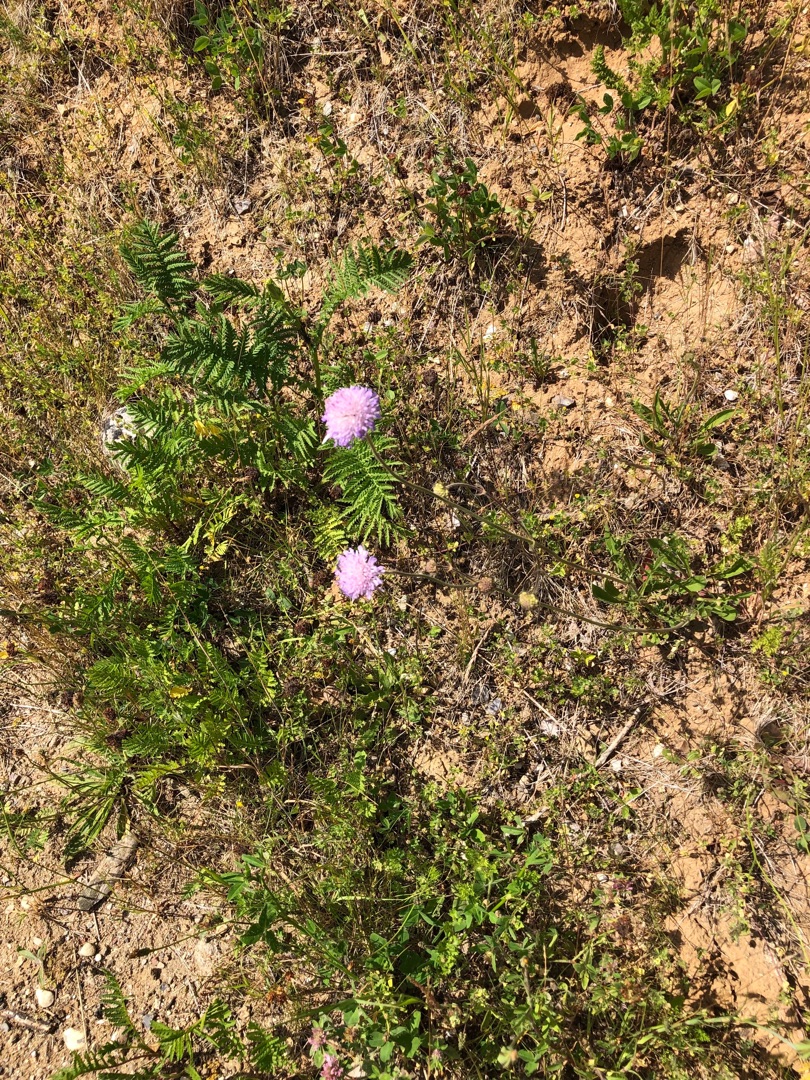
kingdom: Plantae
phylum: Tracheophyta
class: Magnoliopsida
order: Dipsacales
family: Caprifoliaceae
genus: Knautia
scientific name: Knautia arvensis
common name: Blåhat
